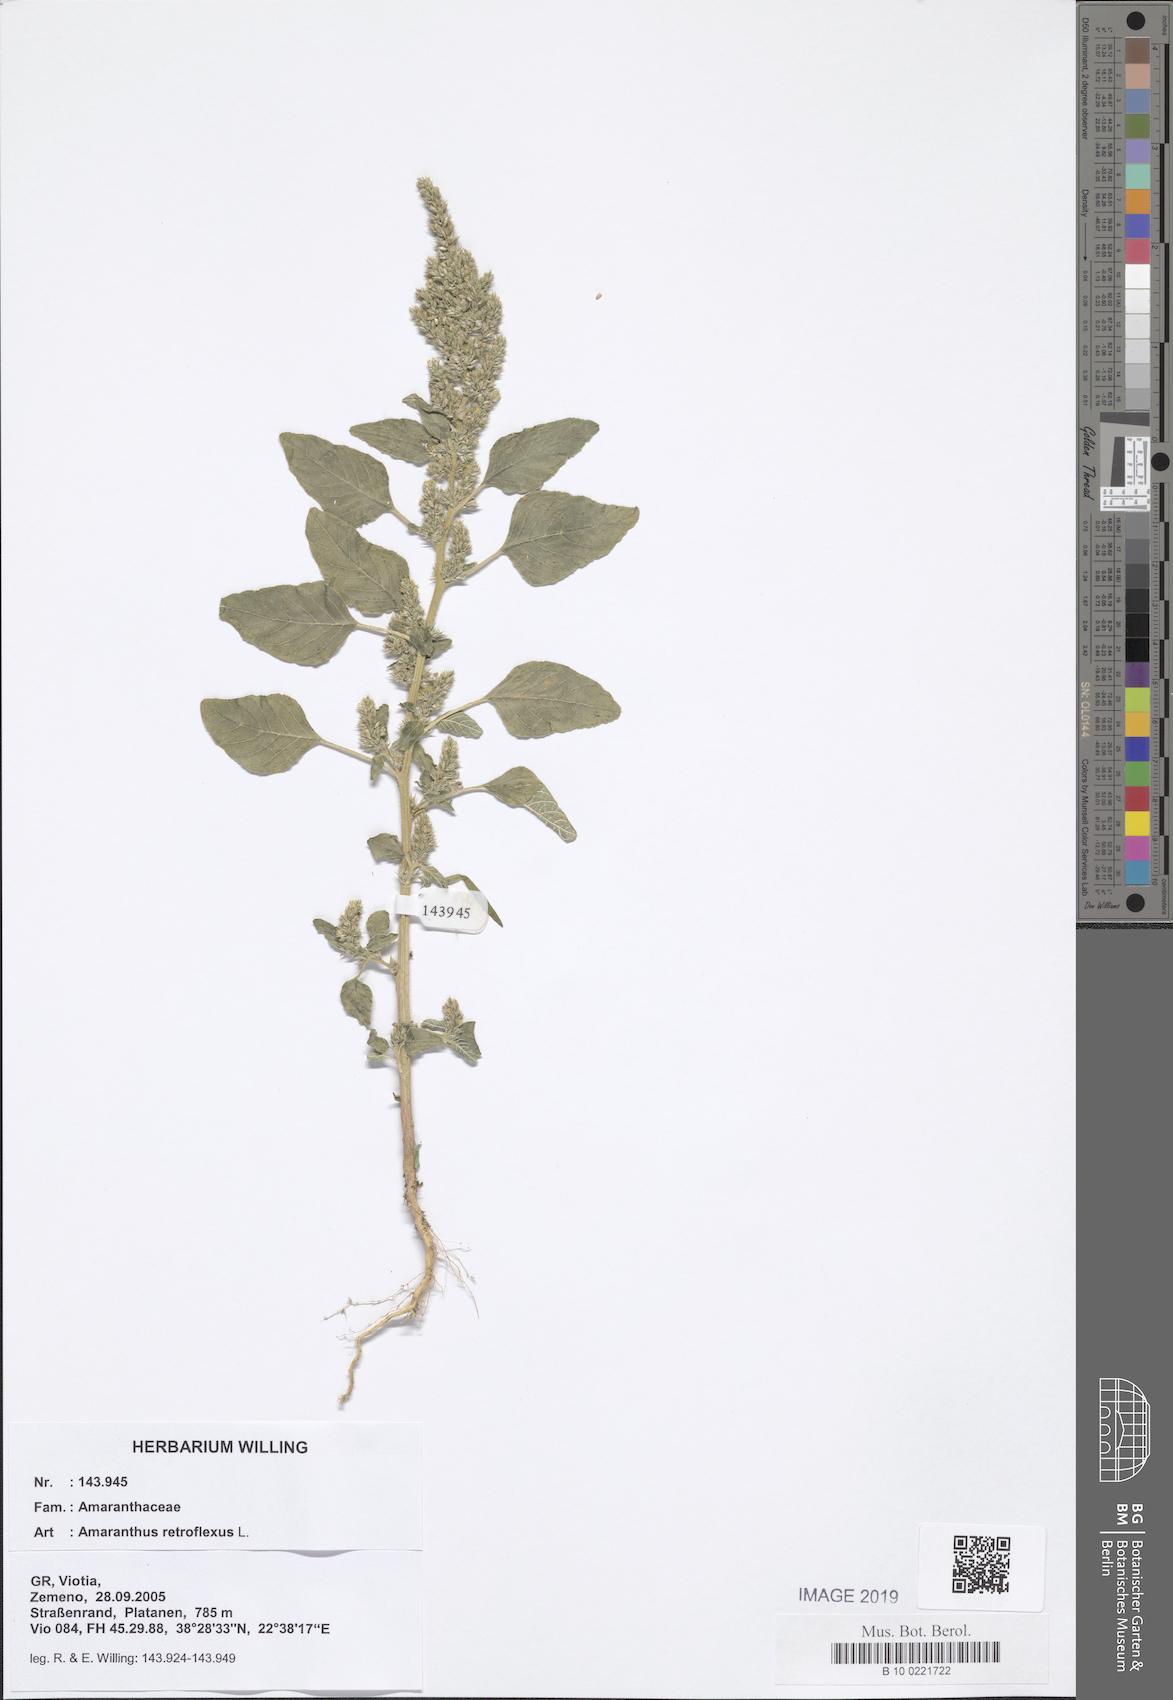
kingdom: Plantae
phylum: Tracheophyta
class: Magnoliopsida
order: Caryophyllales
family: Amaranthaceae
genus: Amaranthus
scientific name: Amaranthus retroflexus
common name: Redroot amaranth
